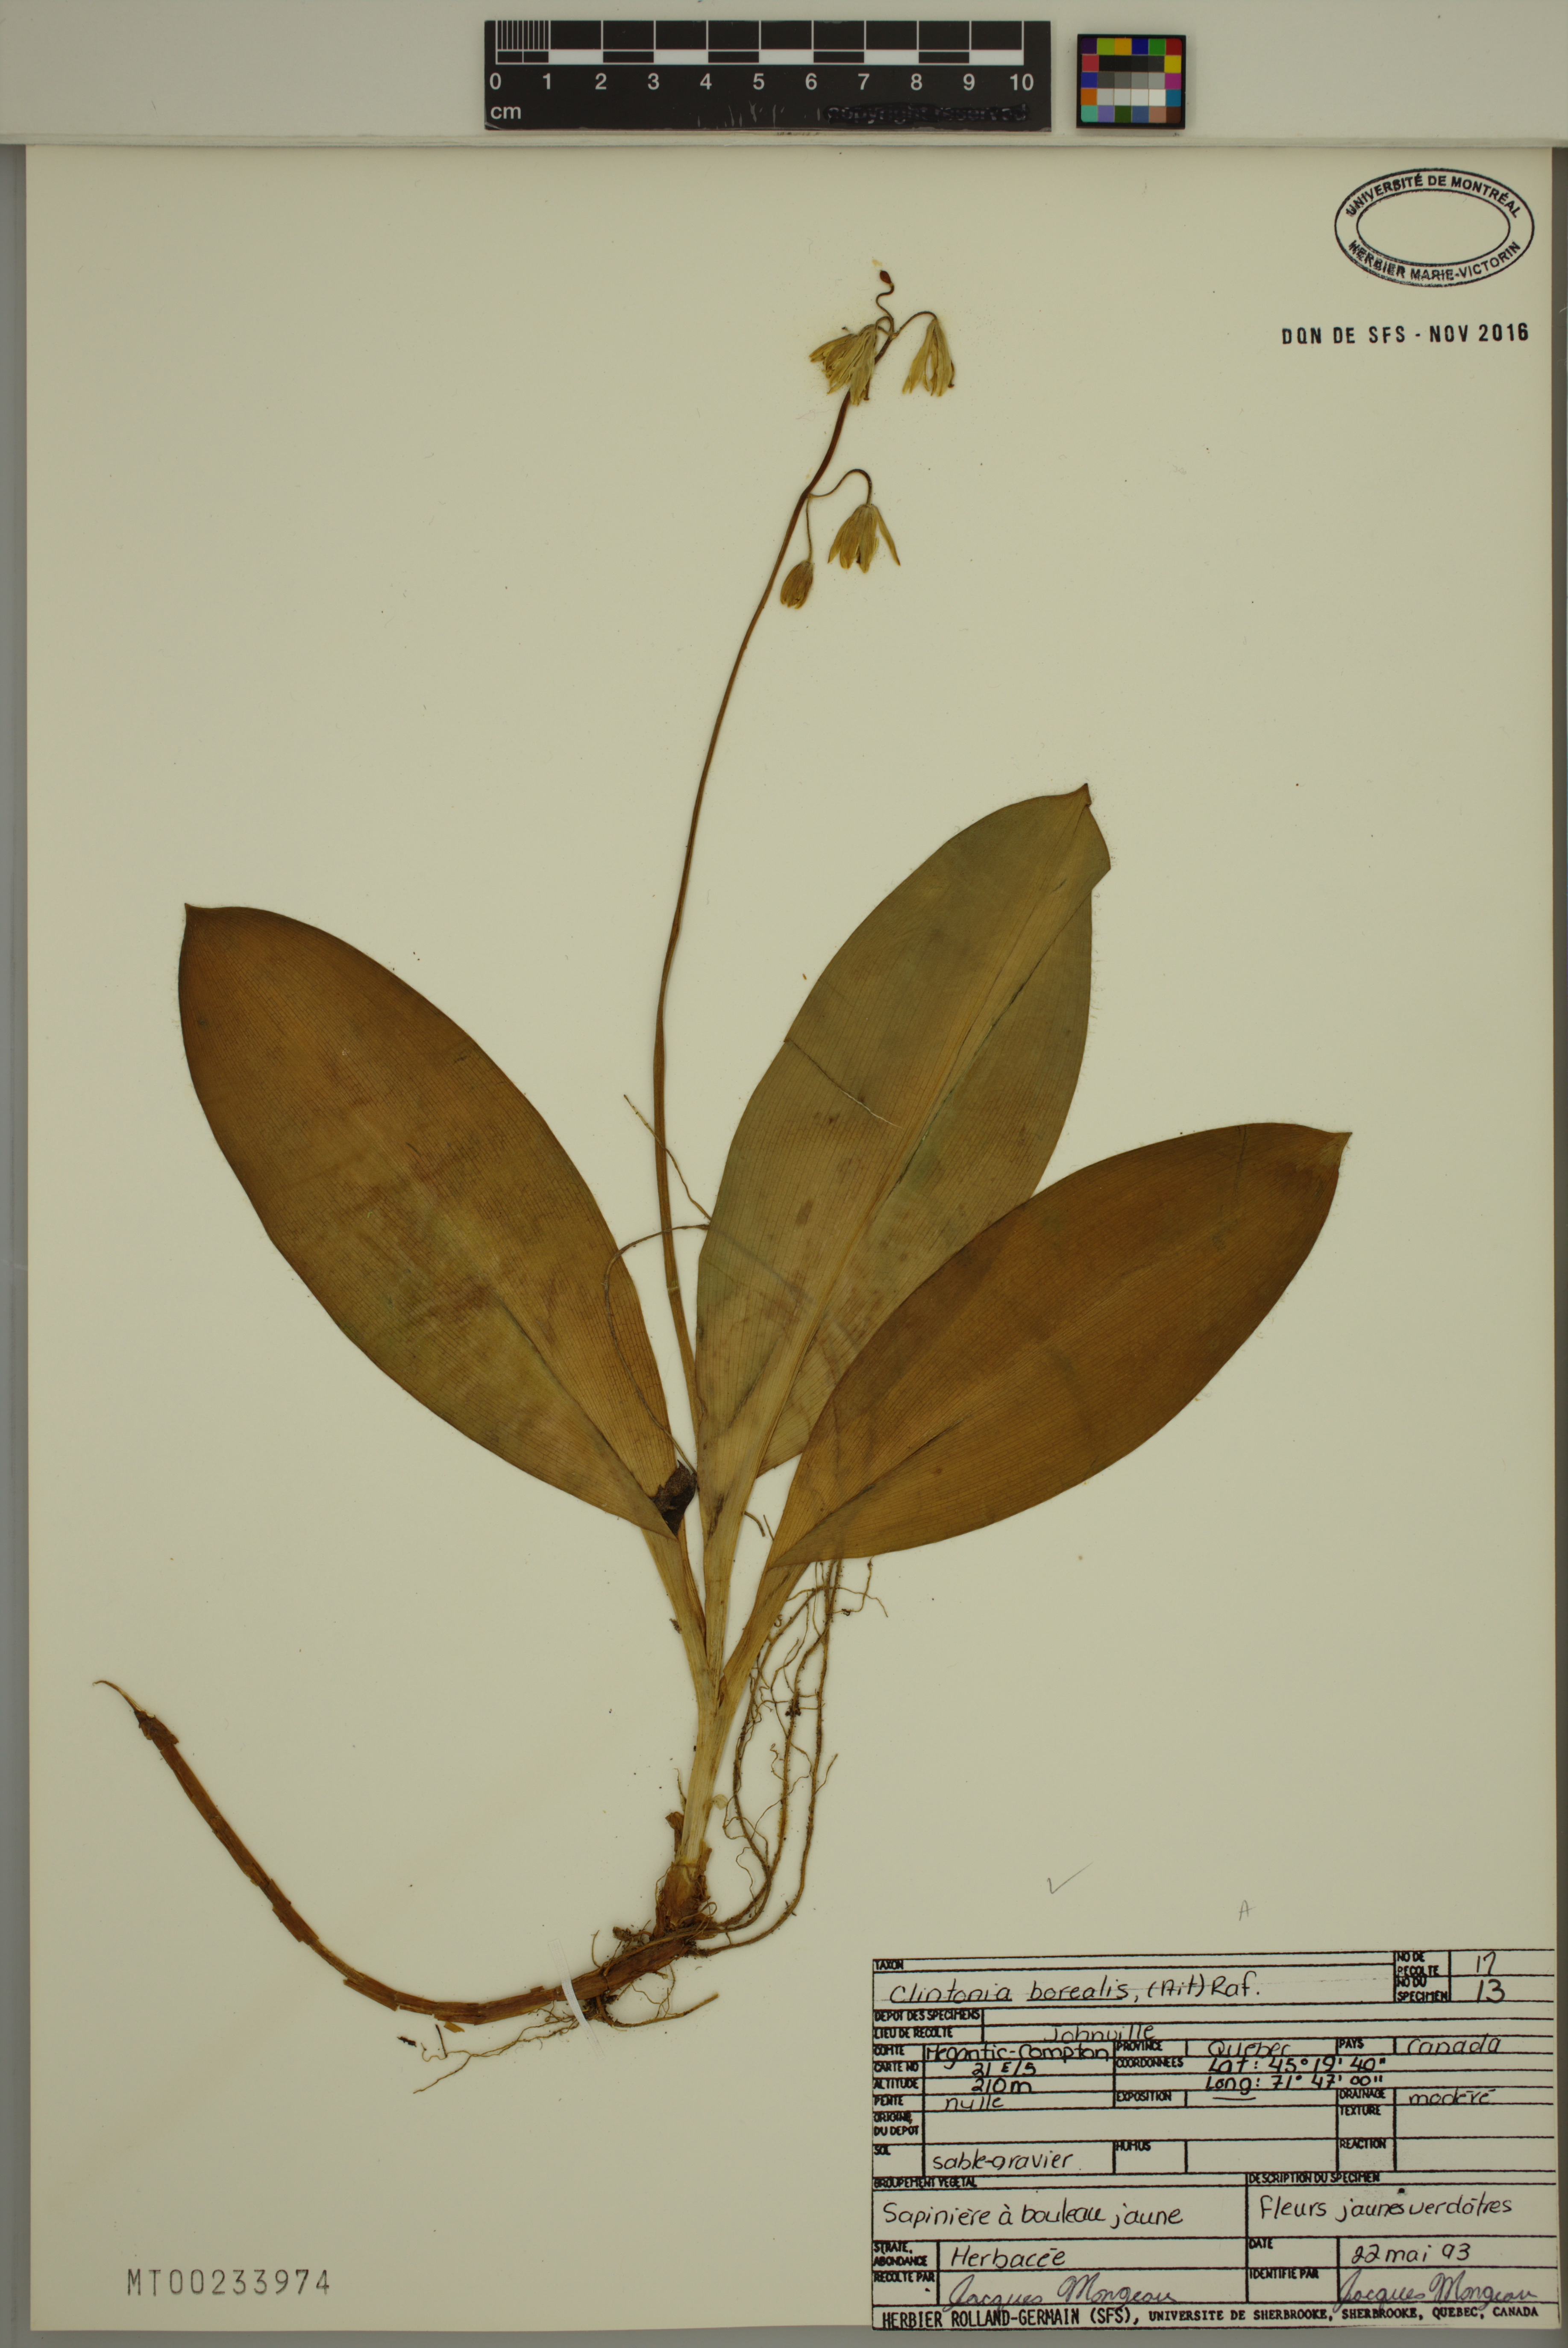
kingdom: Plantae
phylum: Tracheophyta
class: Liliopsida
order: Liliales
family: Liliaceae
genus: Clintonia
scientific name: Clintonia borealis
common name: Yellow clintonia
